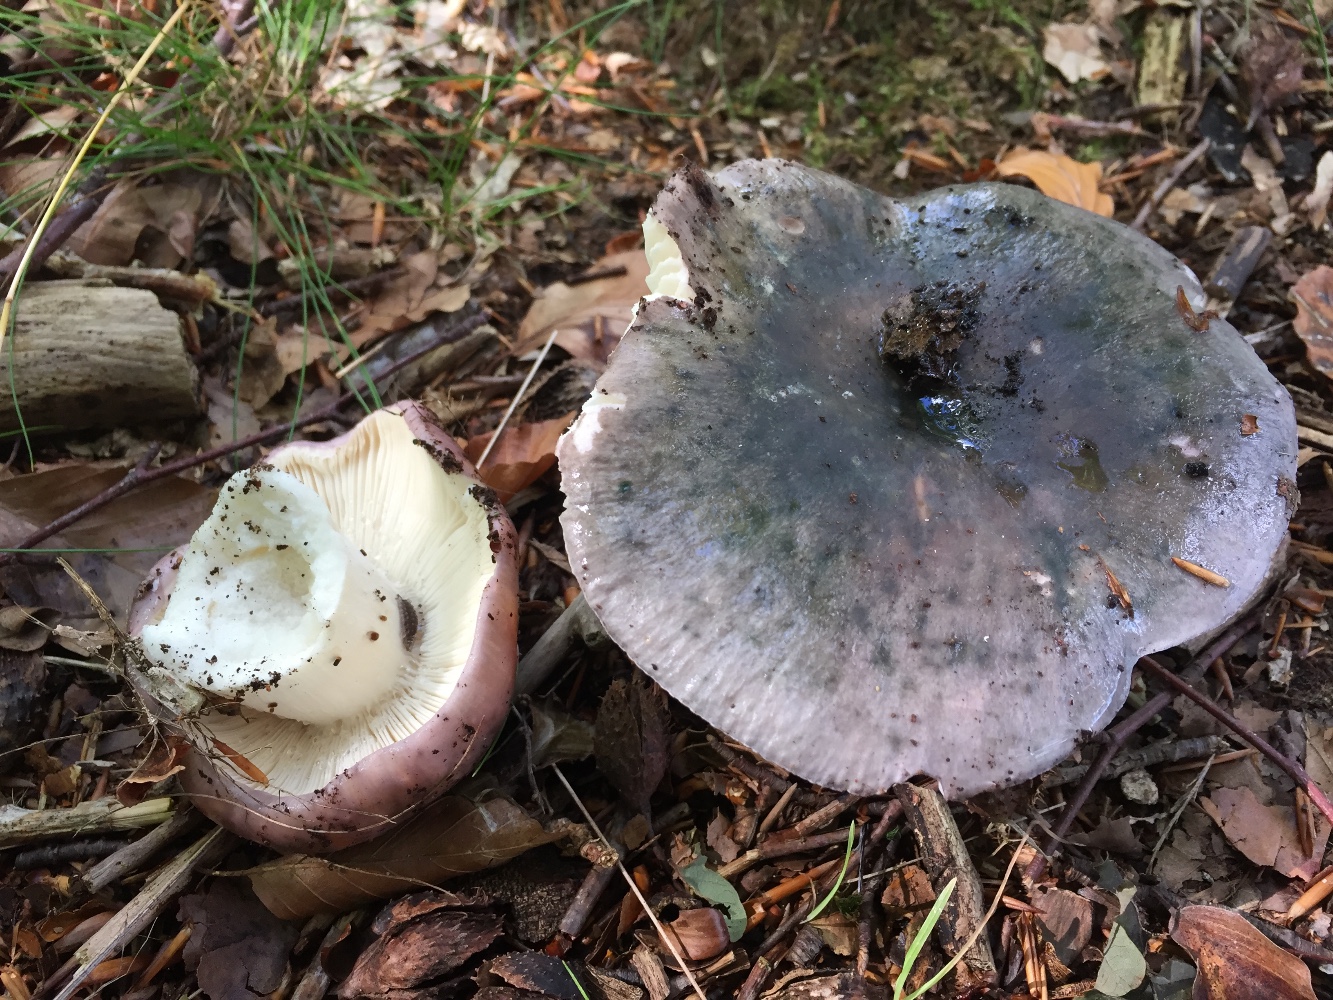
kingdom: Fungi
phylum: Basidiomycota
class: Agaricomycetes
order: Russulales
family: Russulaceae
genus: Russula
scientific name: Russula cyanoxantha
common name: broget skørhat
